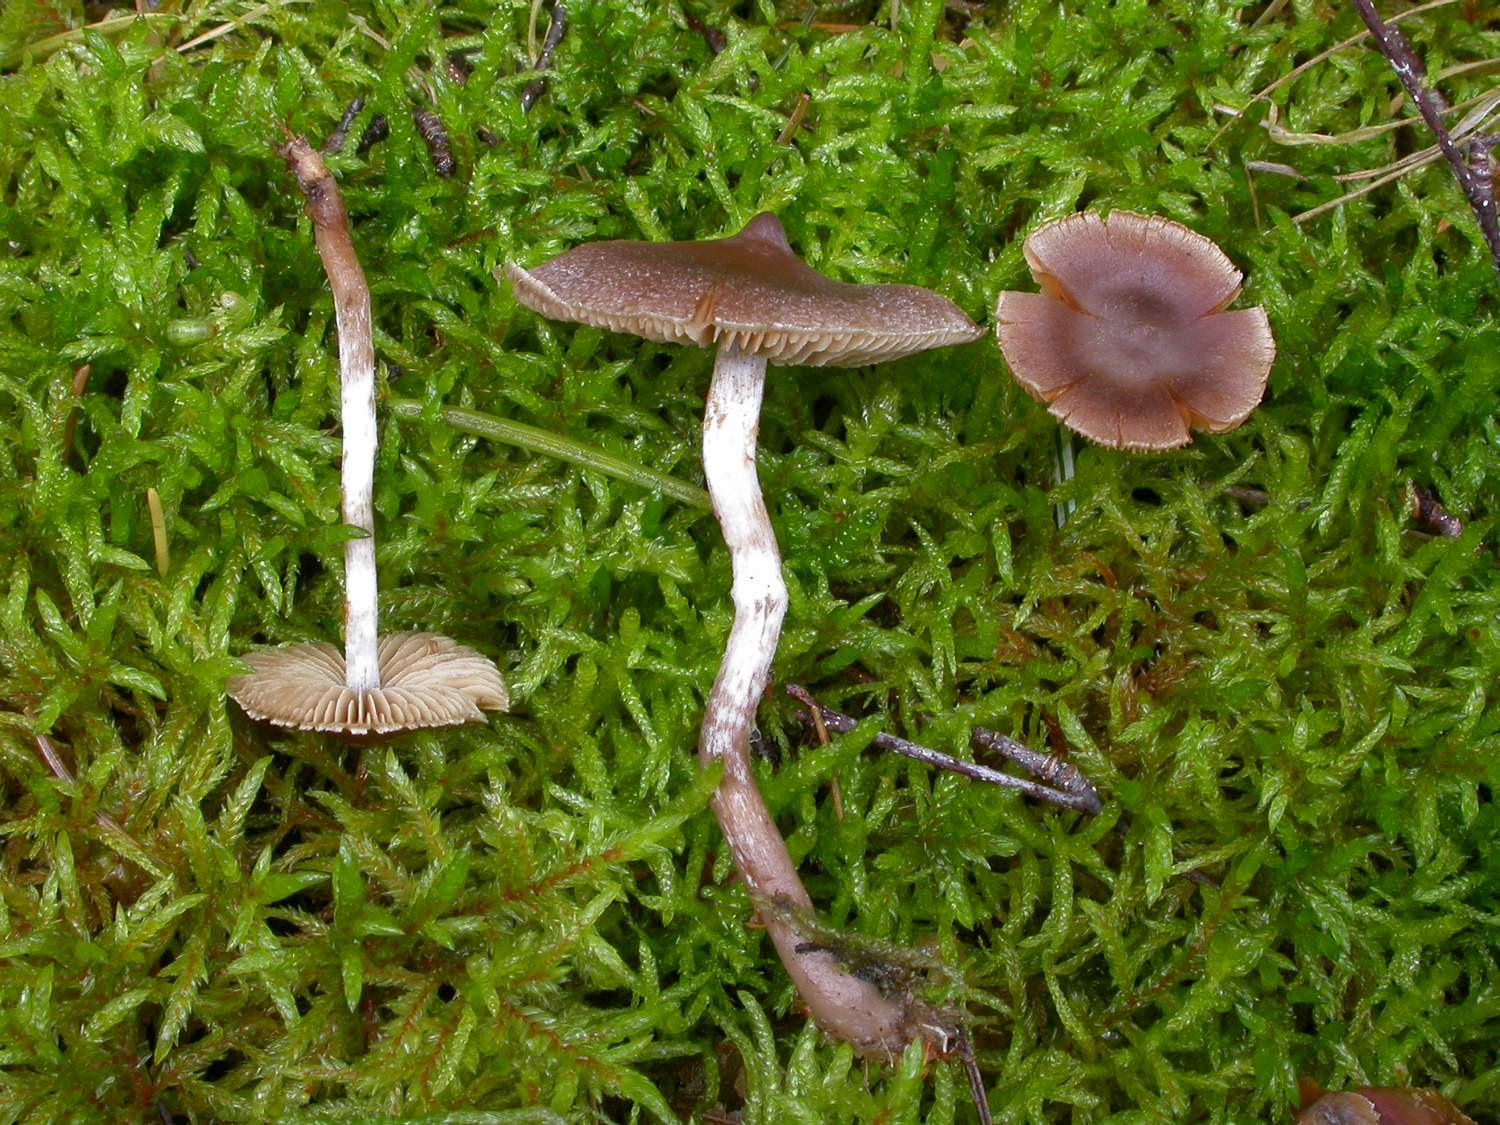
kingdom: Fungi
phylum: Basidiomycota
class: Agaricomycetes
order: Agaricales
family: Cortinariaceae
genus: Cortinarius
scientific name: Cortinarius hemitrichus
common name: hvidfnugget slørhat
